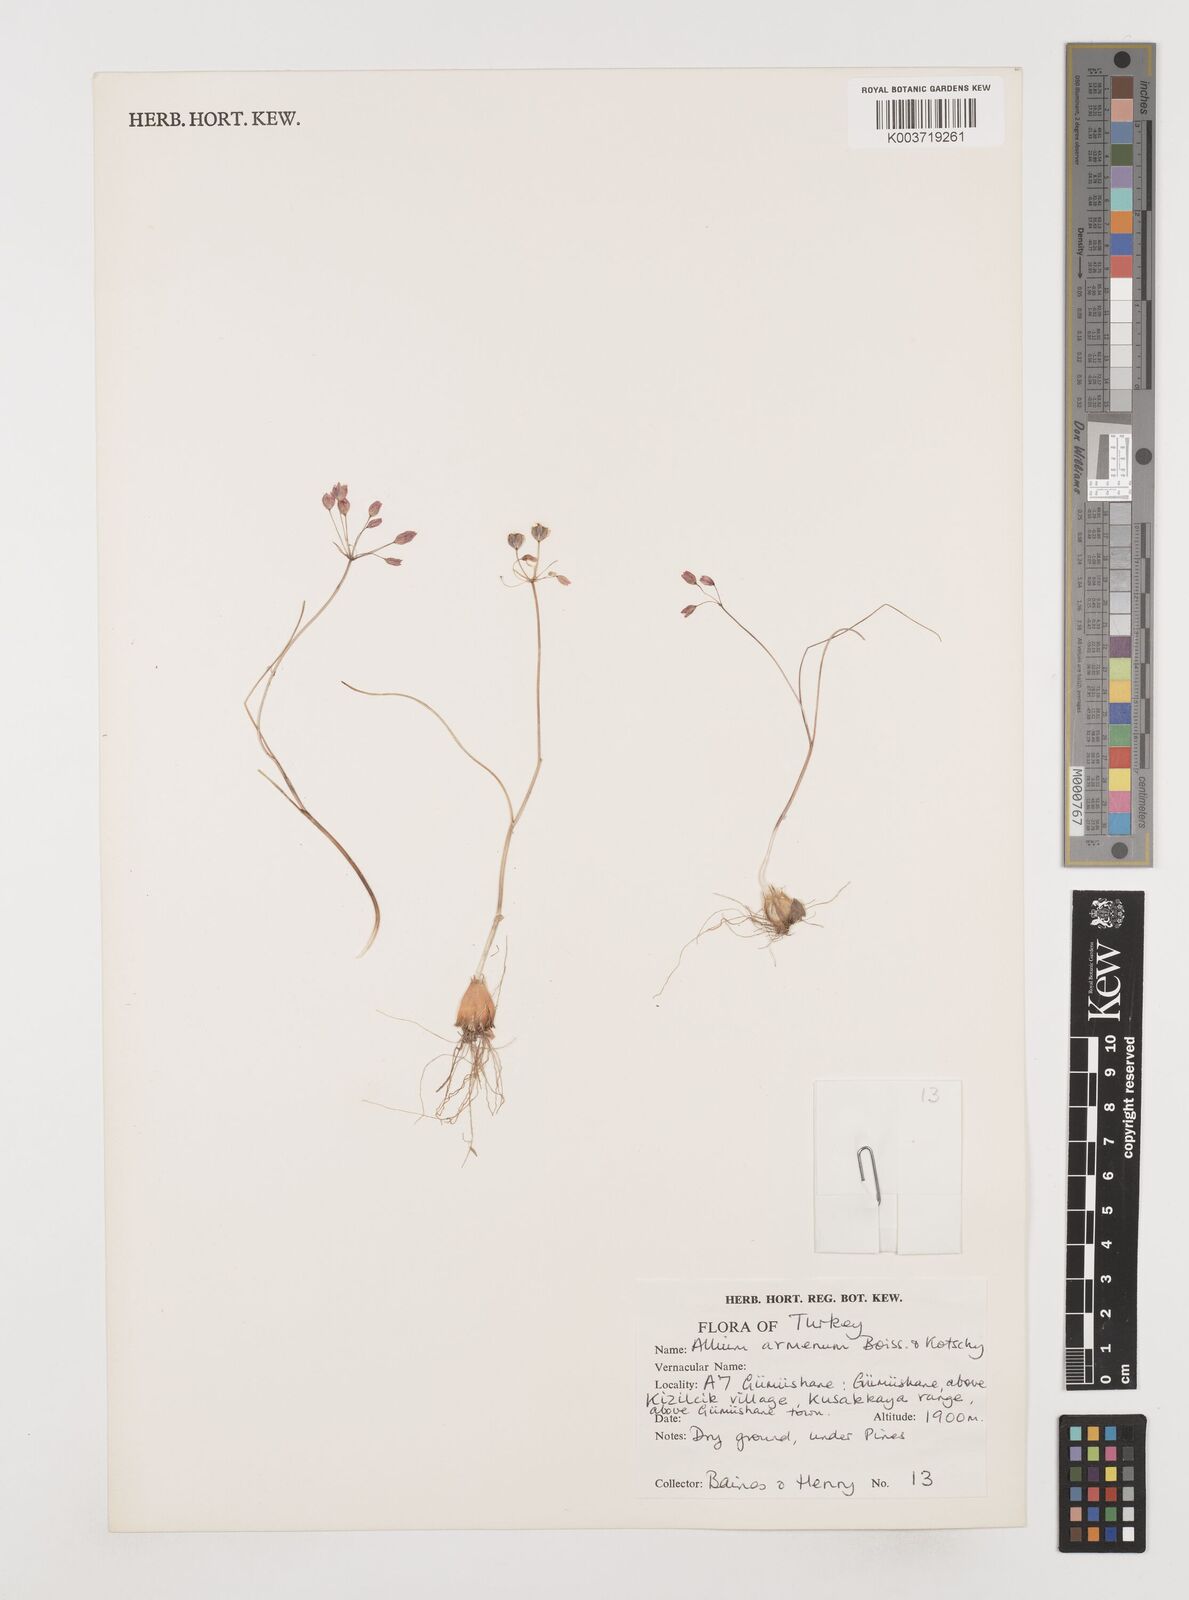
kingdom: Plantae
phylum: Tracheophyta
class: Liliopsida
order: Asparagales
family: Amaryllidaceae
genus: Allium
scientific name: Allium armenum
